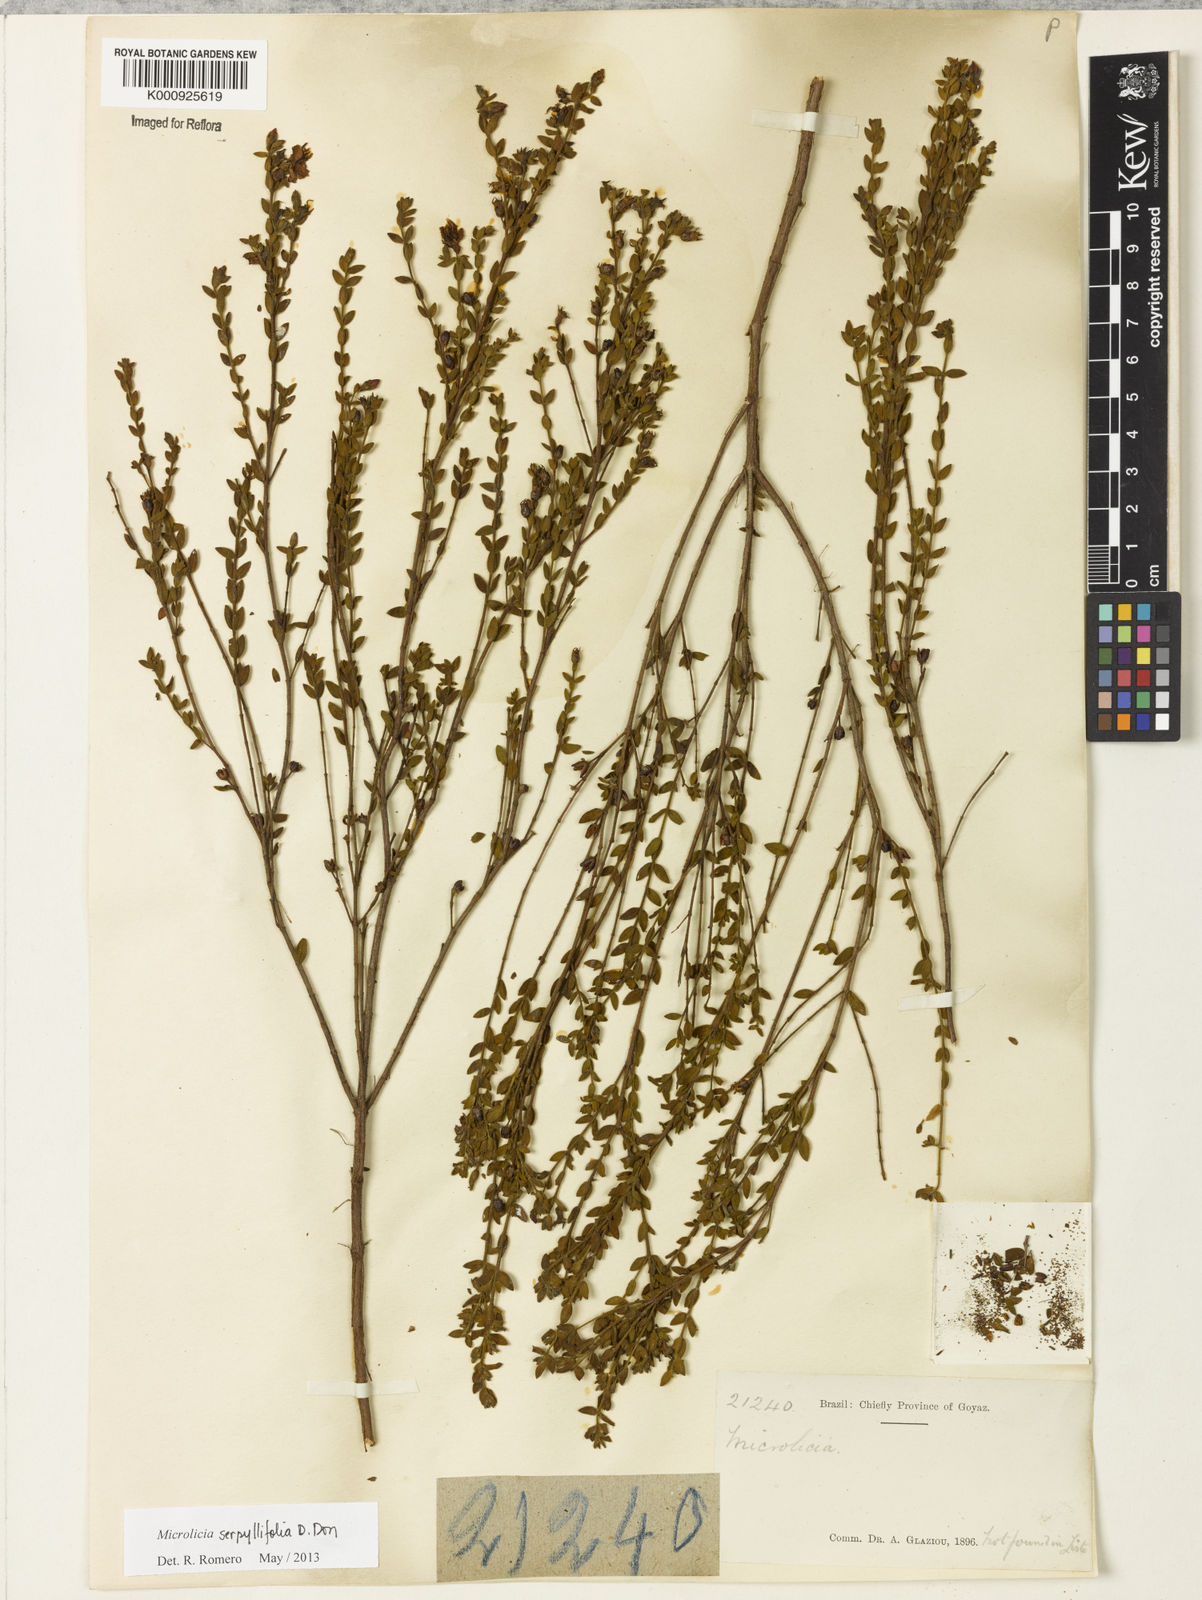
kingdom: Plantae
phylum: Tracheophyta
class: Magnoliopsida
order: Myrtales
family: Melastomataceae
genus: Microlicia
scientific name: Microlicia fulva
